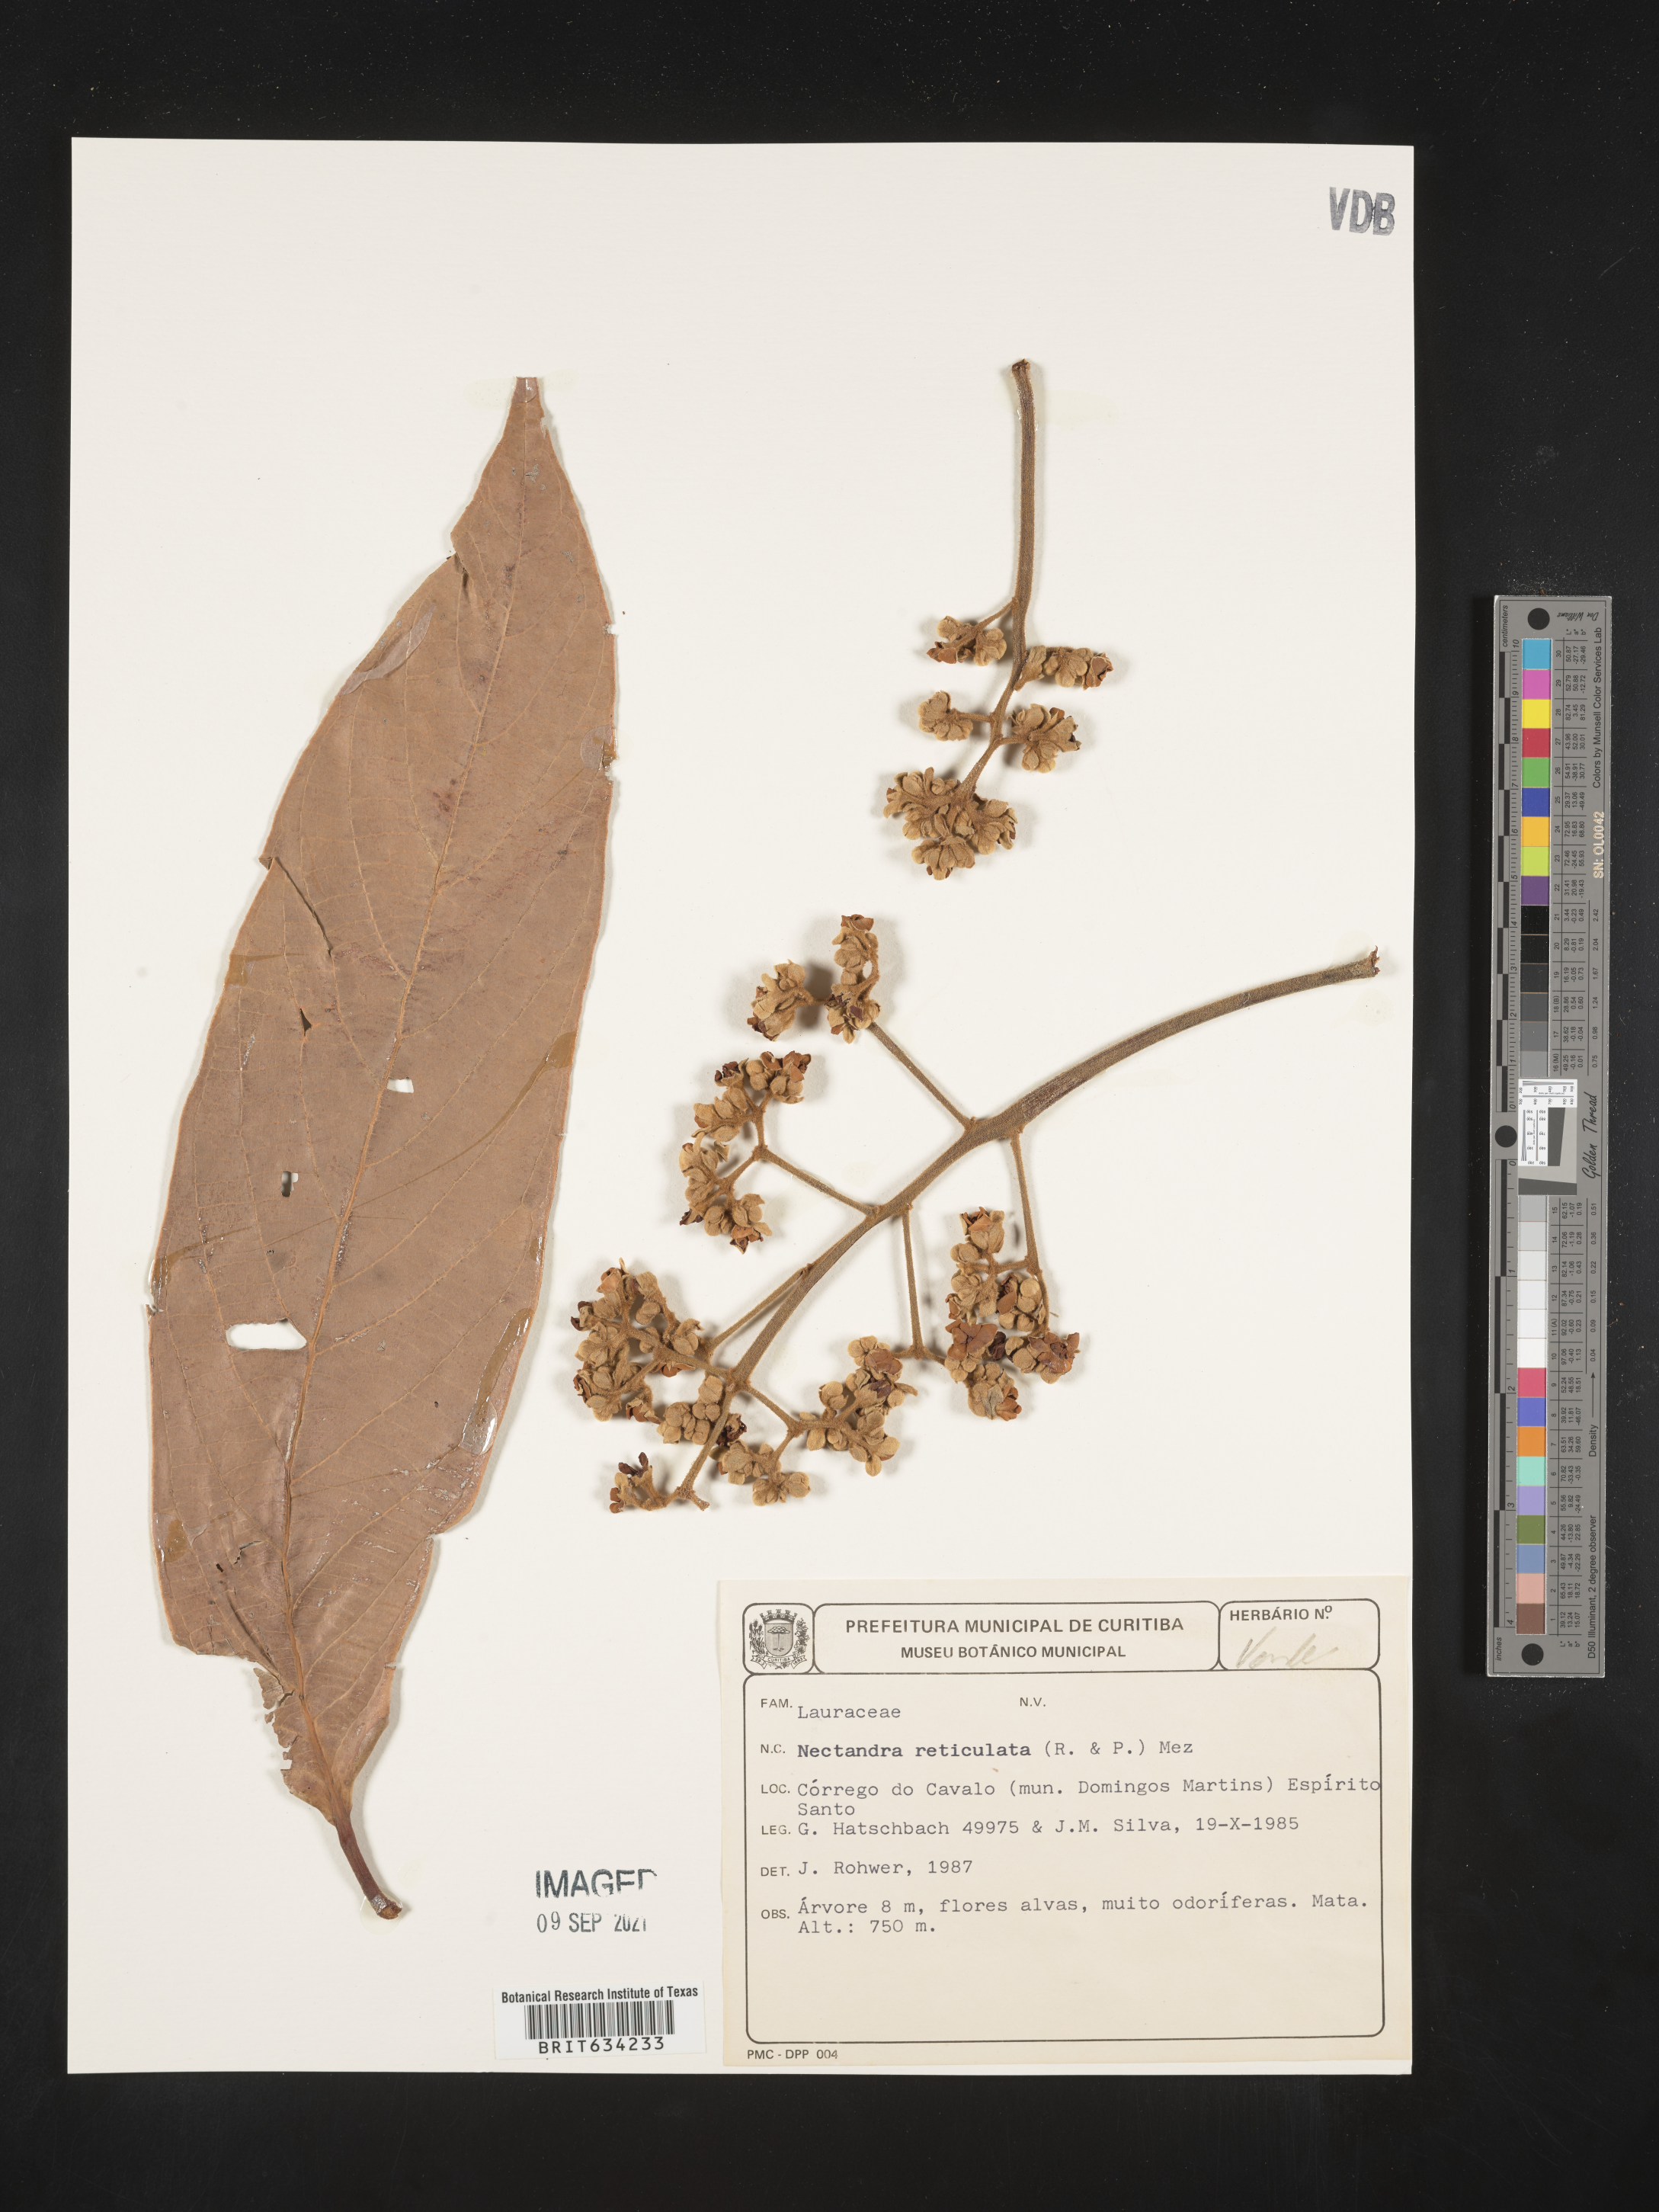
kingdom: Plantae
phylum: Tracheophyta
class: Magnoliopsida
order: Laurales
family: Lauraceae
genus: Nectandra
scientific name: Nectandra
